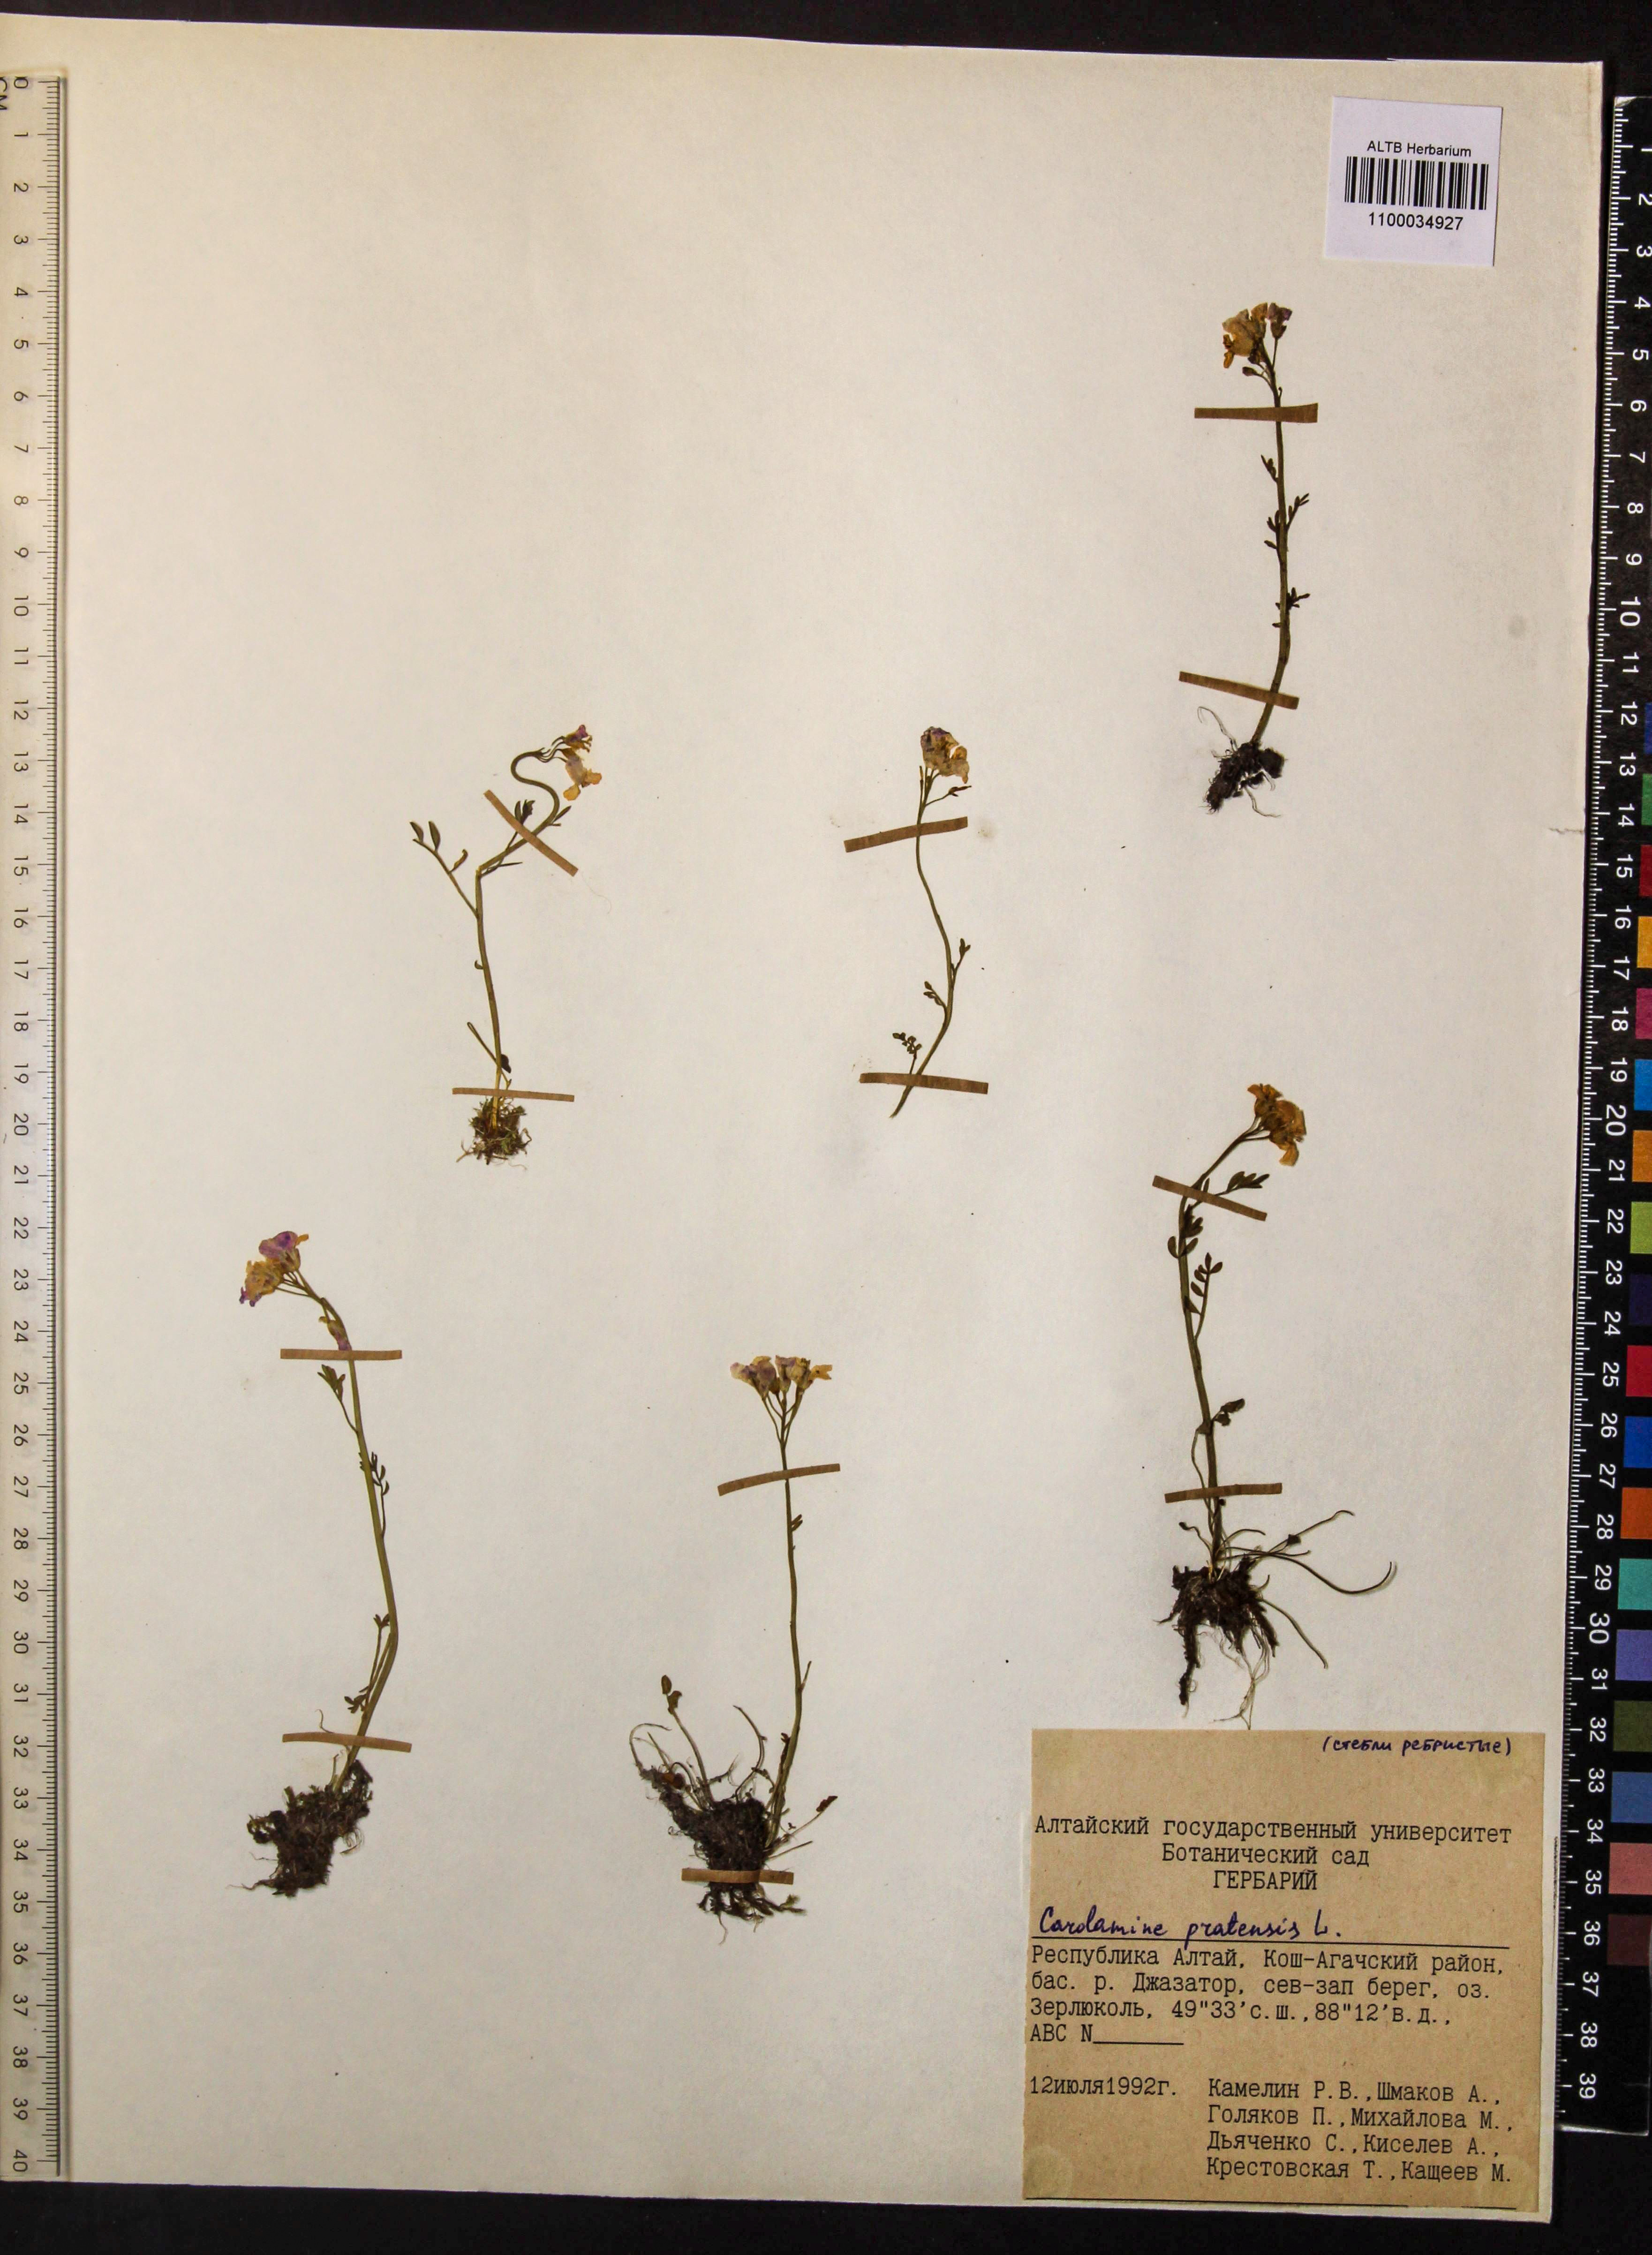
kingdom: Plantae
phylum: Tracheophyta
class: Magnoliopsida
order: Brassicales
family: Brassicaceae
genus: Cardamine
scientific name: Cardamine pratensis
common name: Cuckoo flower
